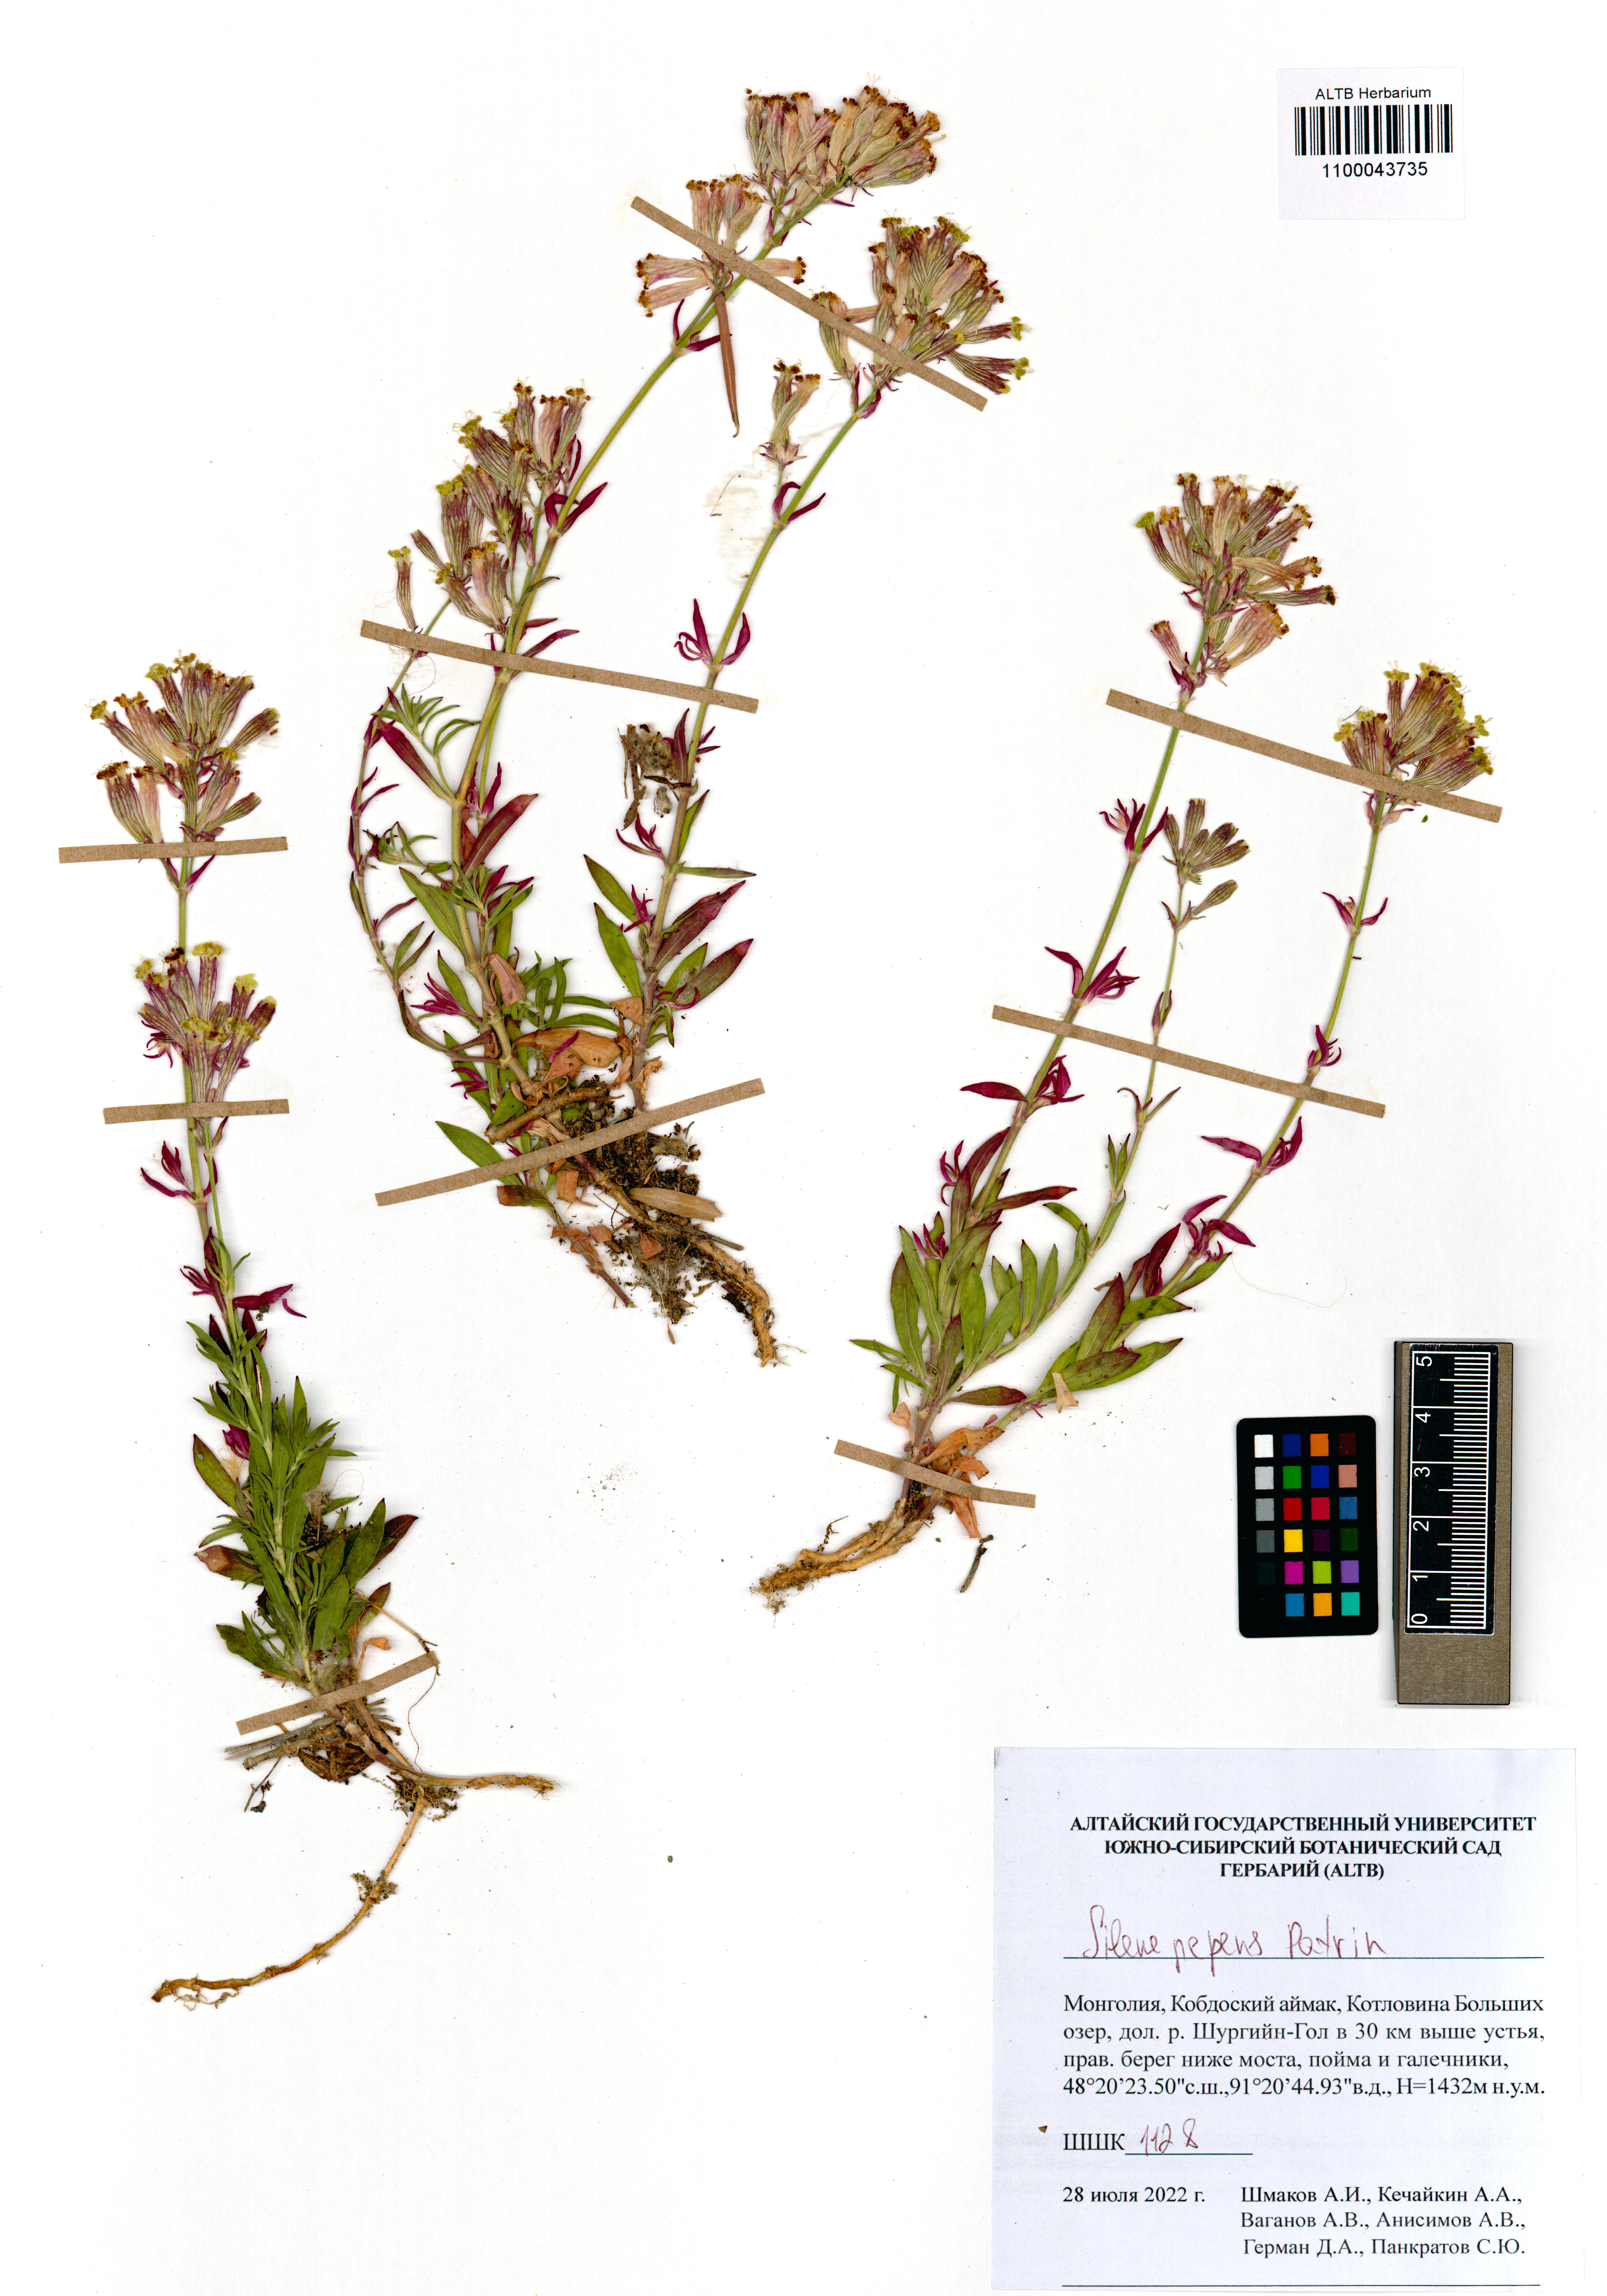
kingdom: Plantae
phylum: Tracheophyta
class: Magnoliopsida
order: Caryophyllales
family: Caryophyllaceae
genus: Silene
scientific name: Silene repens
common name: Pink campion
